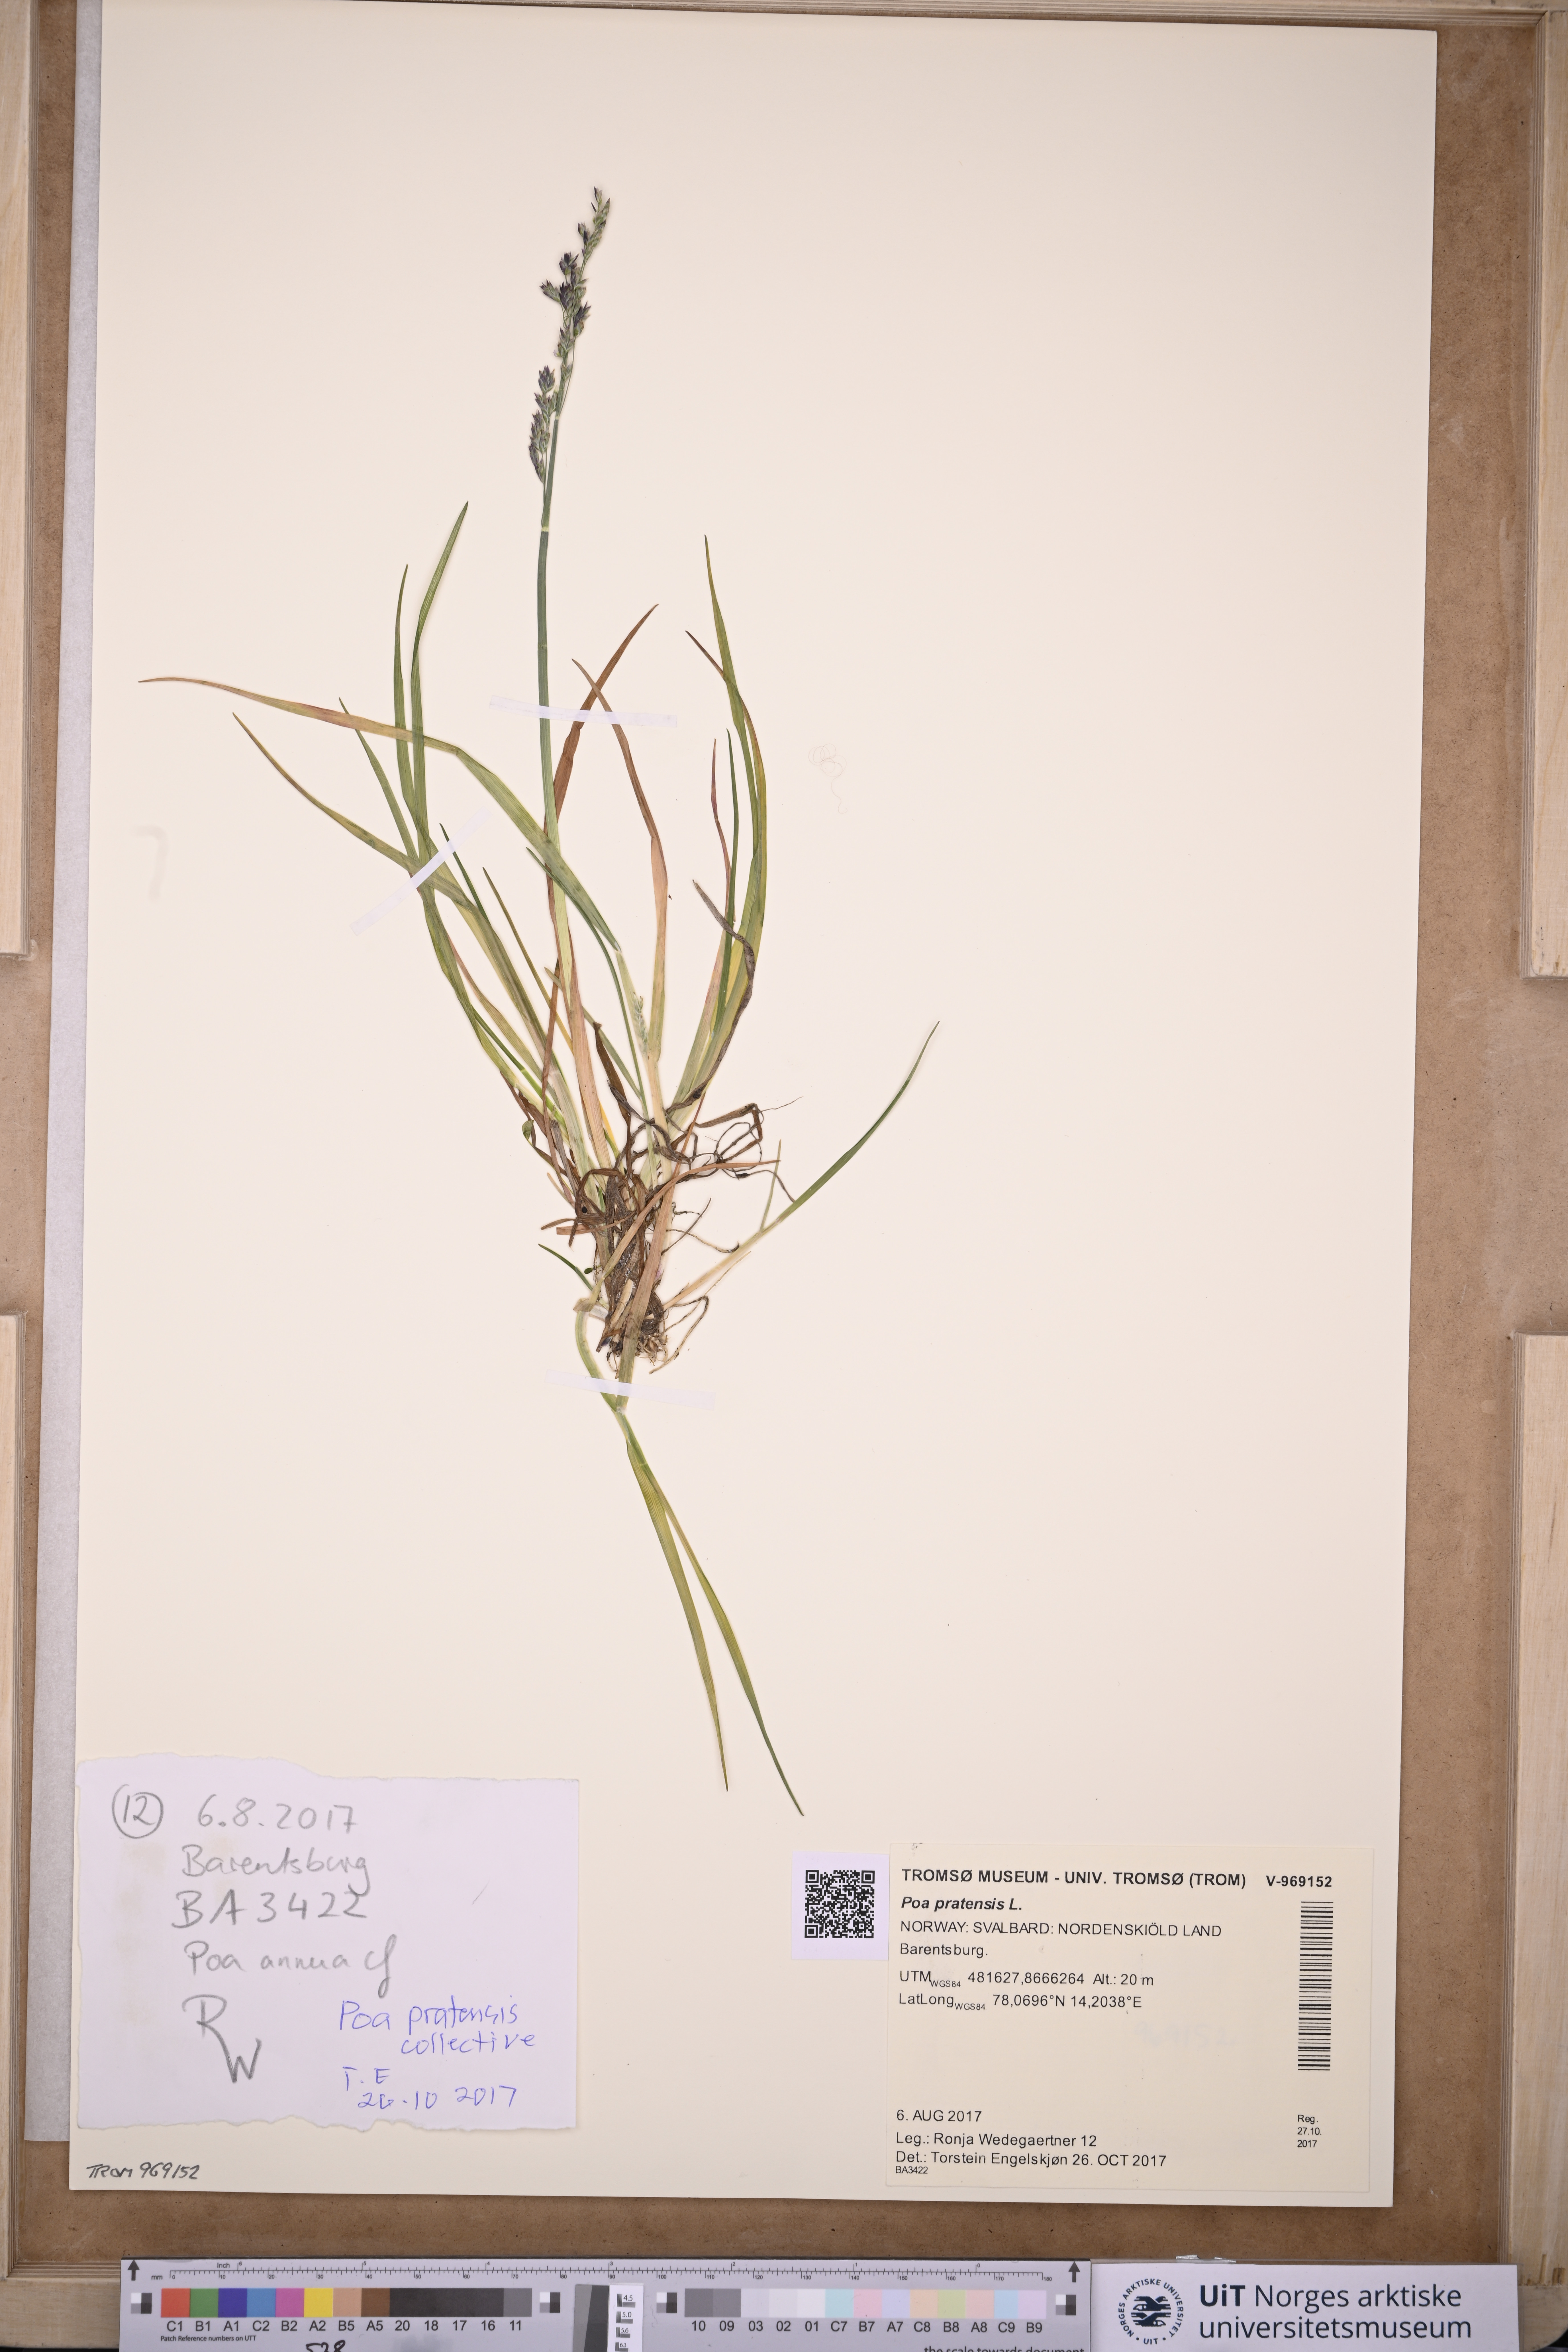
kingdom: Plantae
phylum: Tracheophyta
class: Liliopsida
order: Poales
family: Poaceae
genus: Poa
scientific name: Poa pratensis
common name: Kentucky bluegrass
